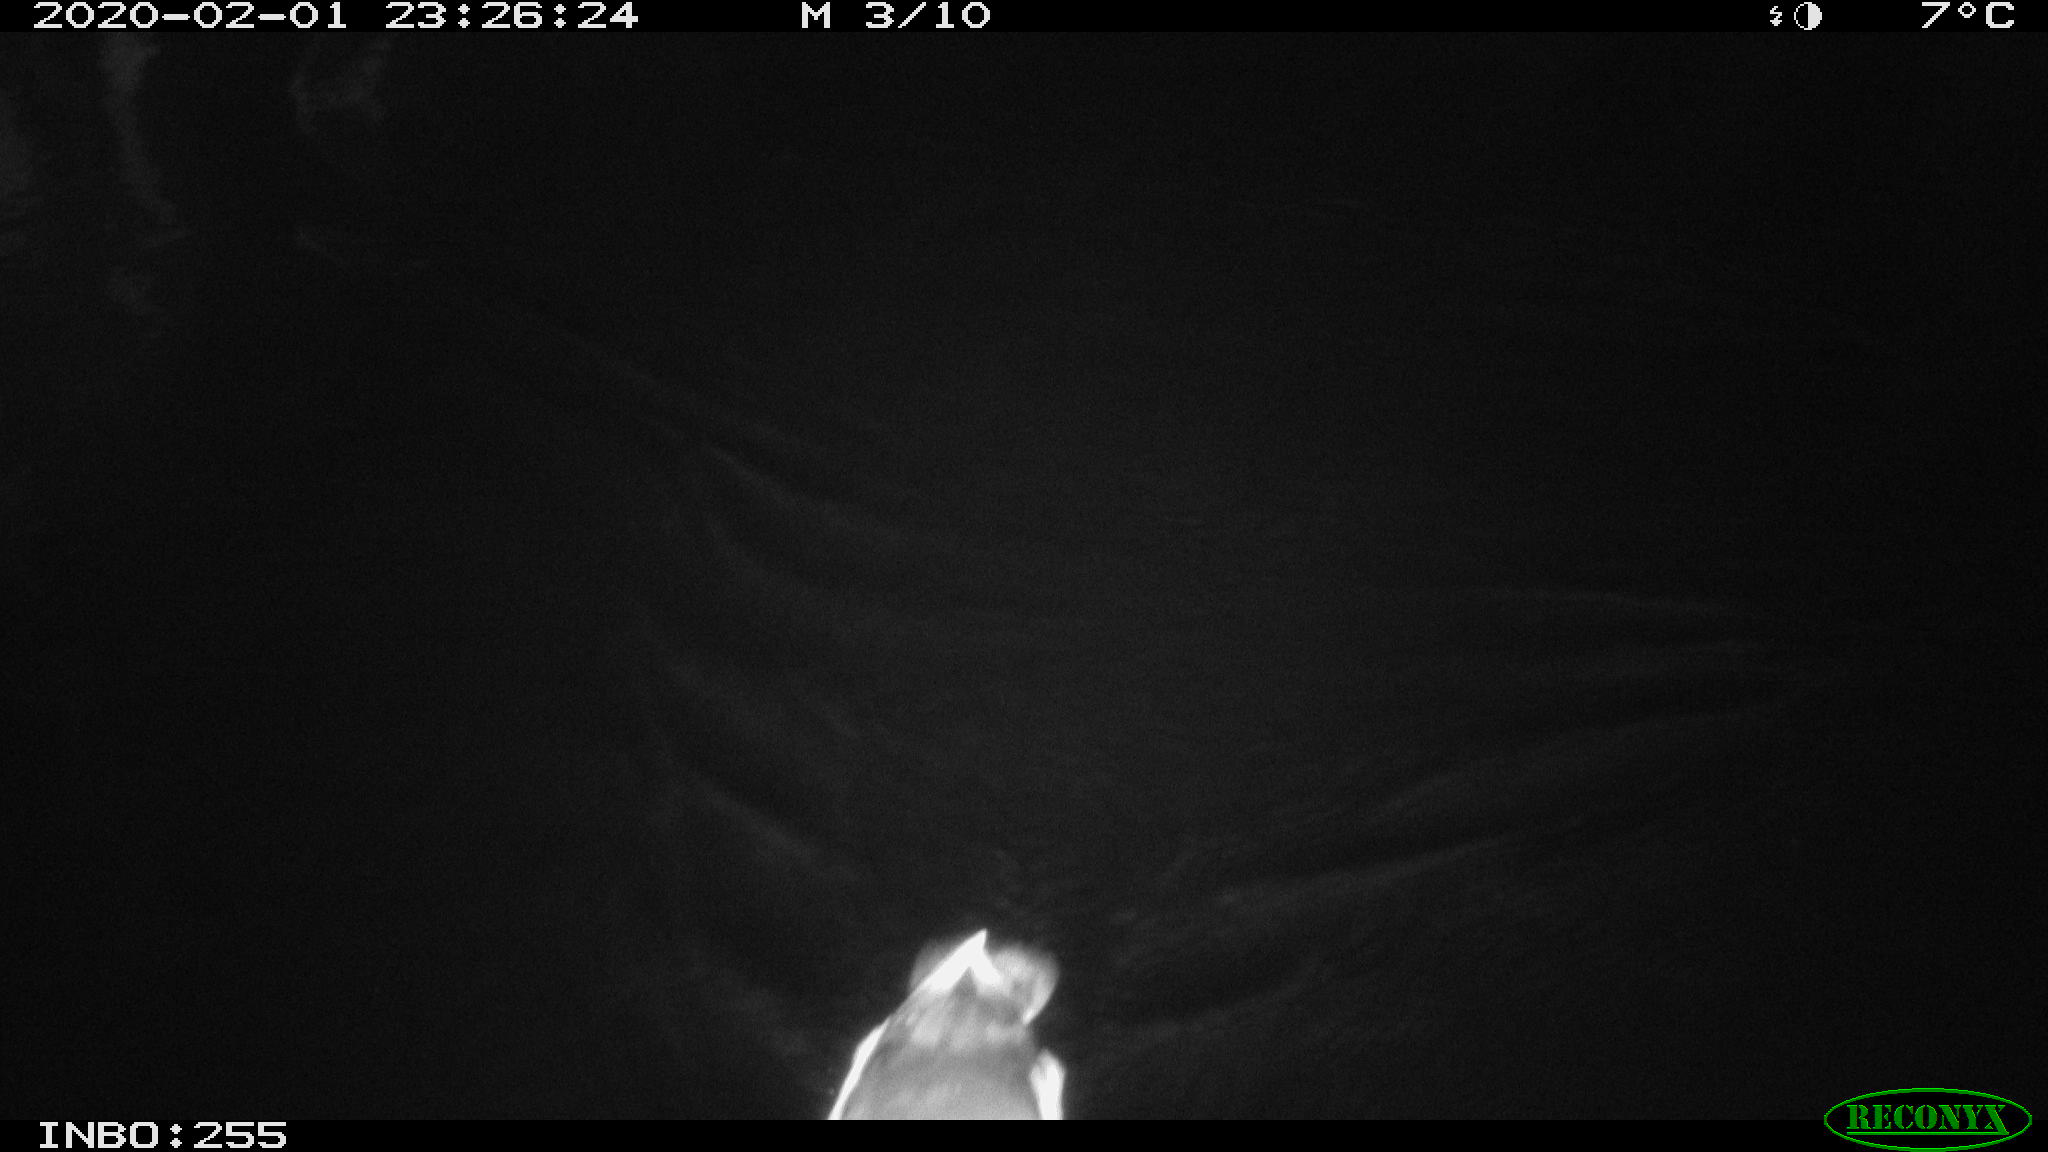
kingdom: Animalia
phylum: Chordata
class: Aves
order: Gruiformes
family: Rallidae
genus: Gallinula
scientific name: Gallinula chloropus
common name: Common moorhen
